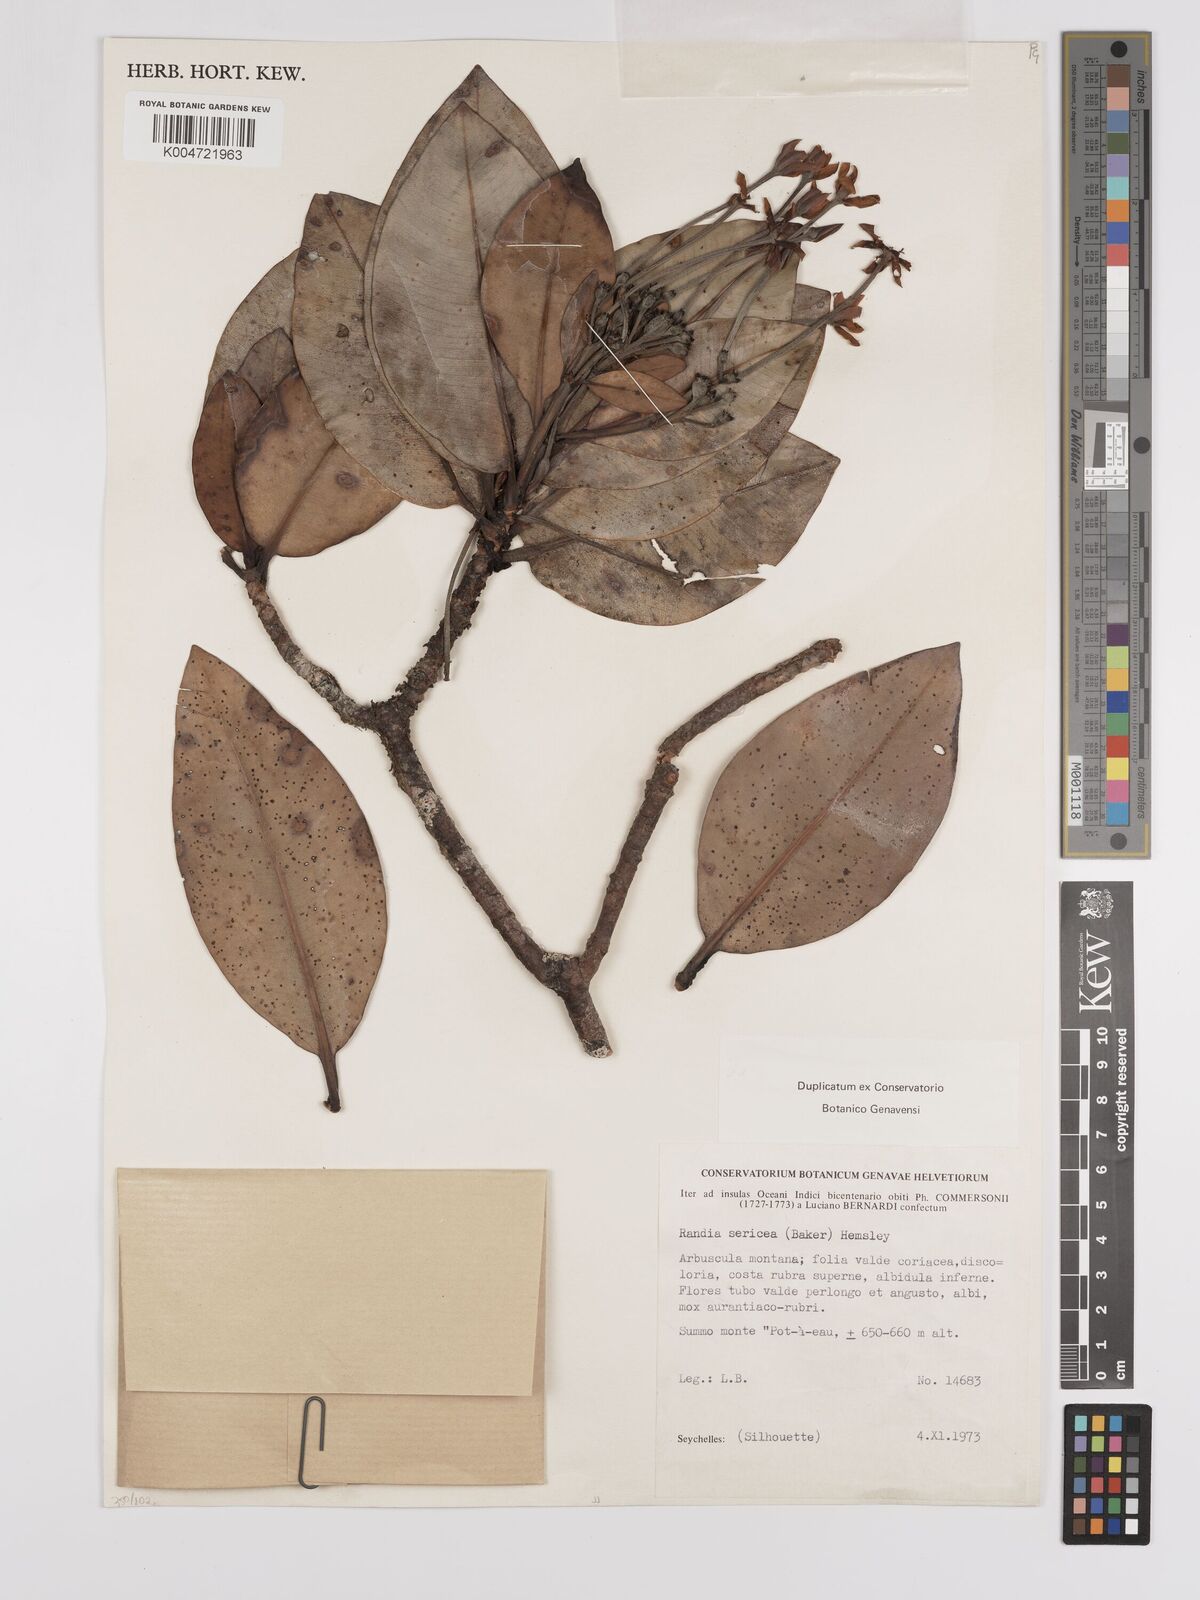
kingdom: Plantae
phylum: Tracheophyta
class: Magnoliopsida
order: Gentianales
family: Rubiaceae
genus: Glionnetia
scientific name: Glionnetia sericea
